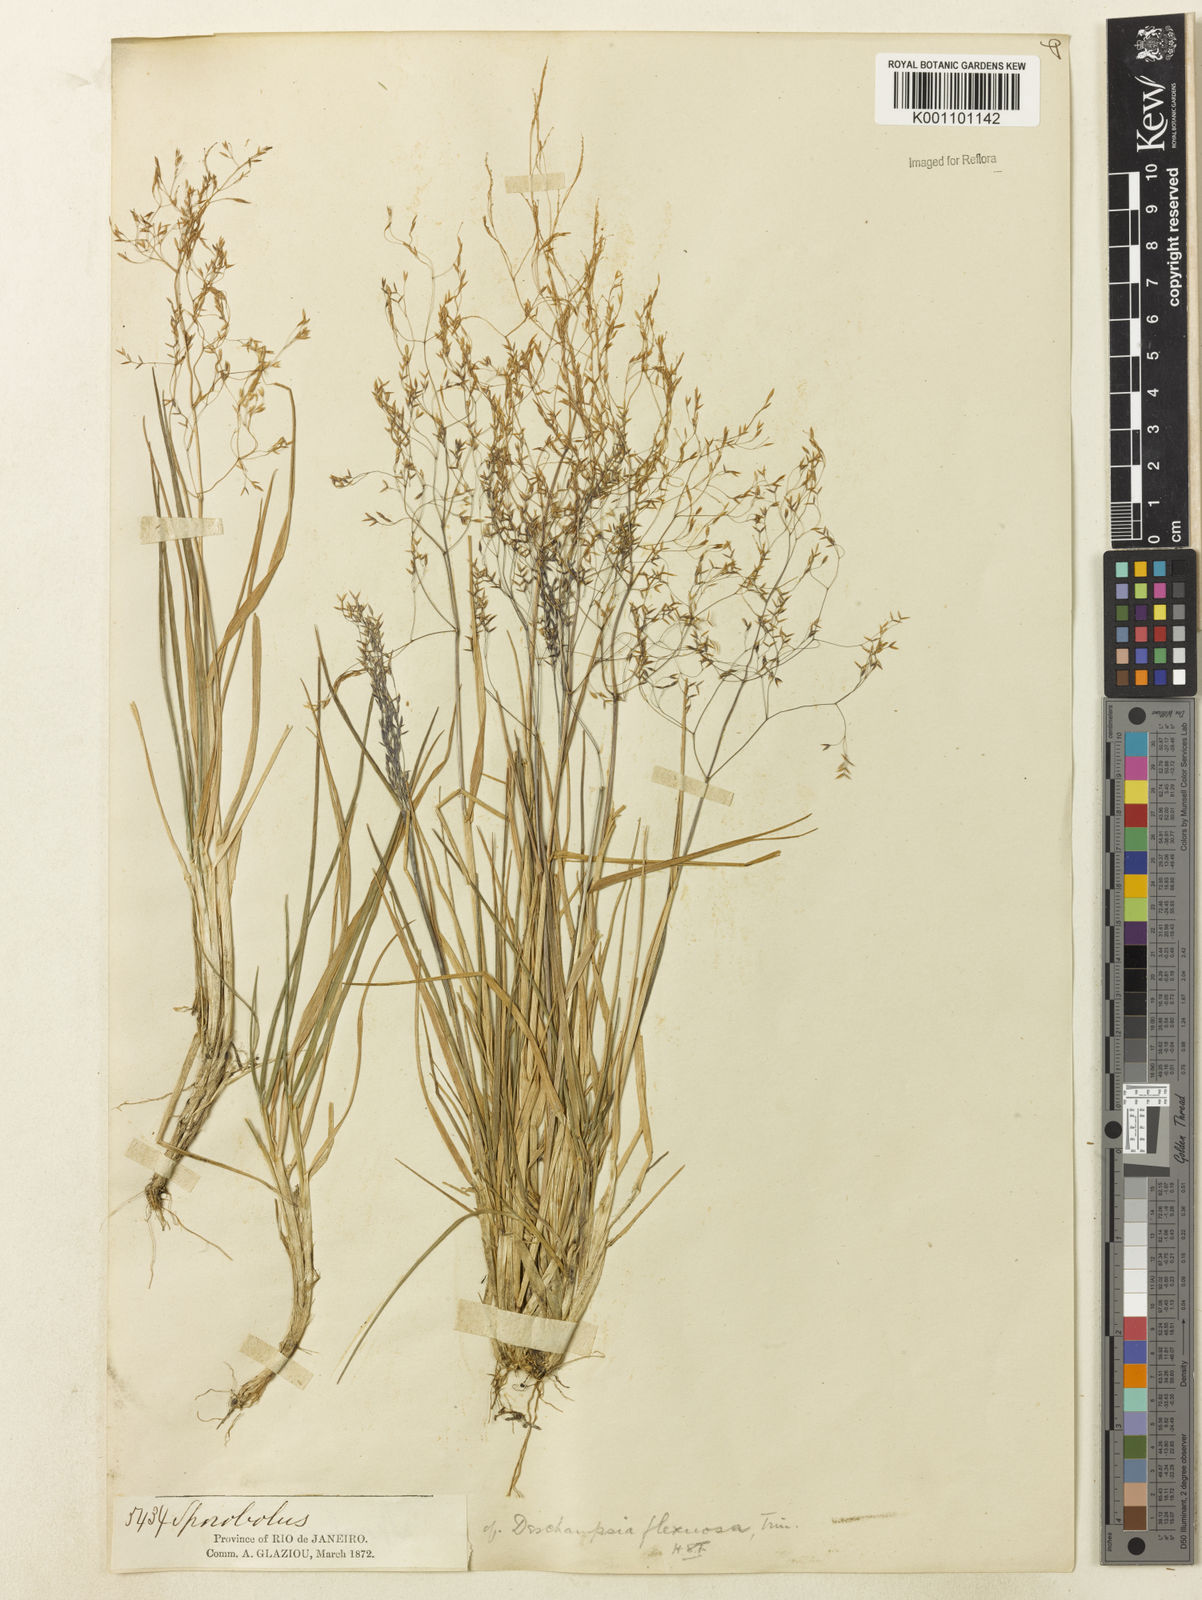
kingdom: Plantae
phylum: Tracheophyta
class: Liliopsida
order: Poales
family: Poaceae
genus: Agrostis
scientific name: Agrostis
